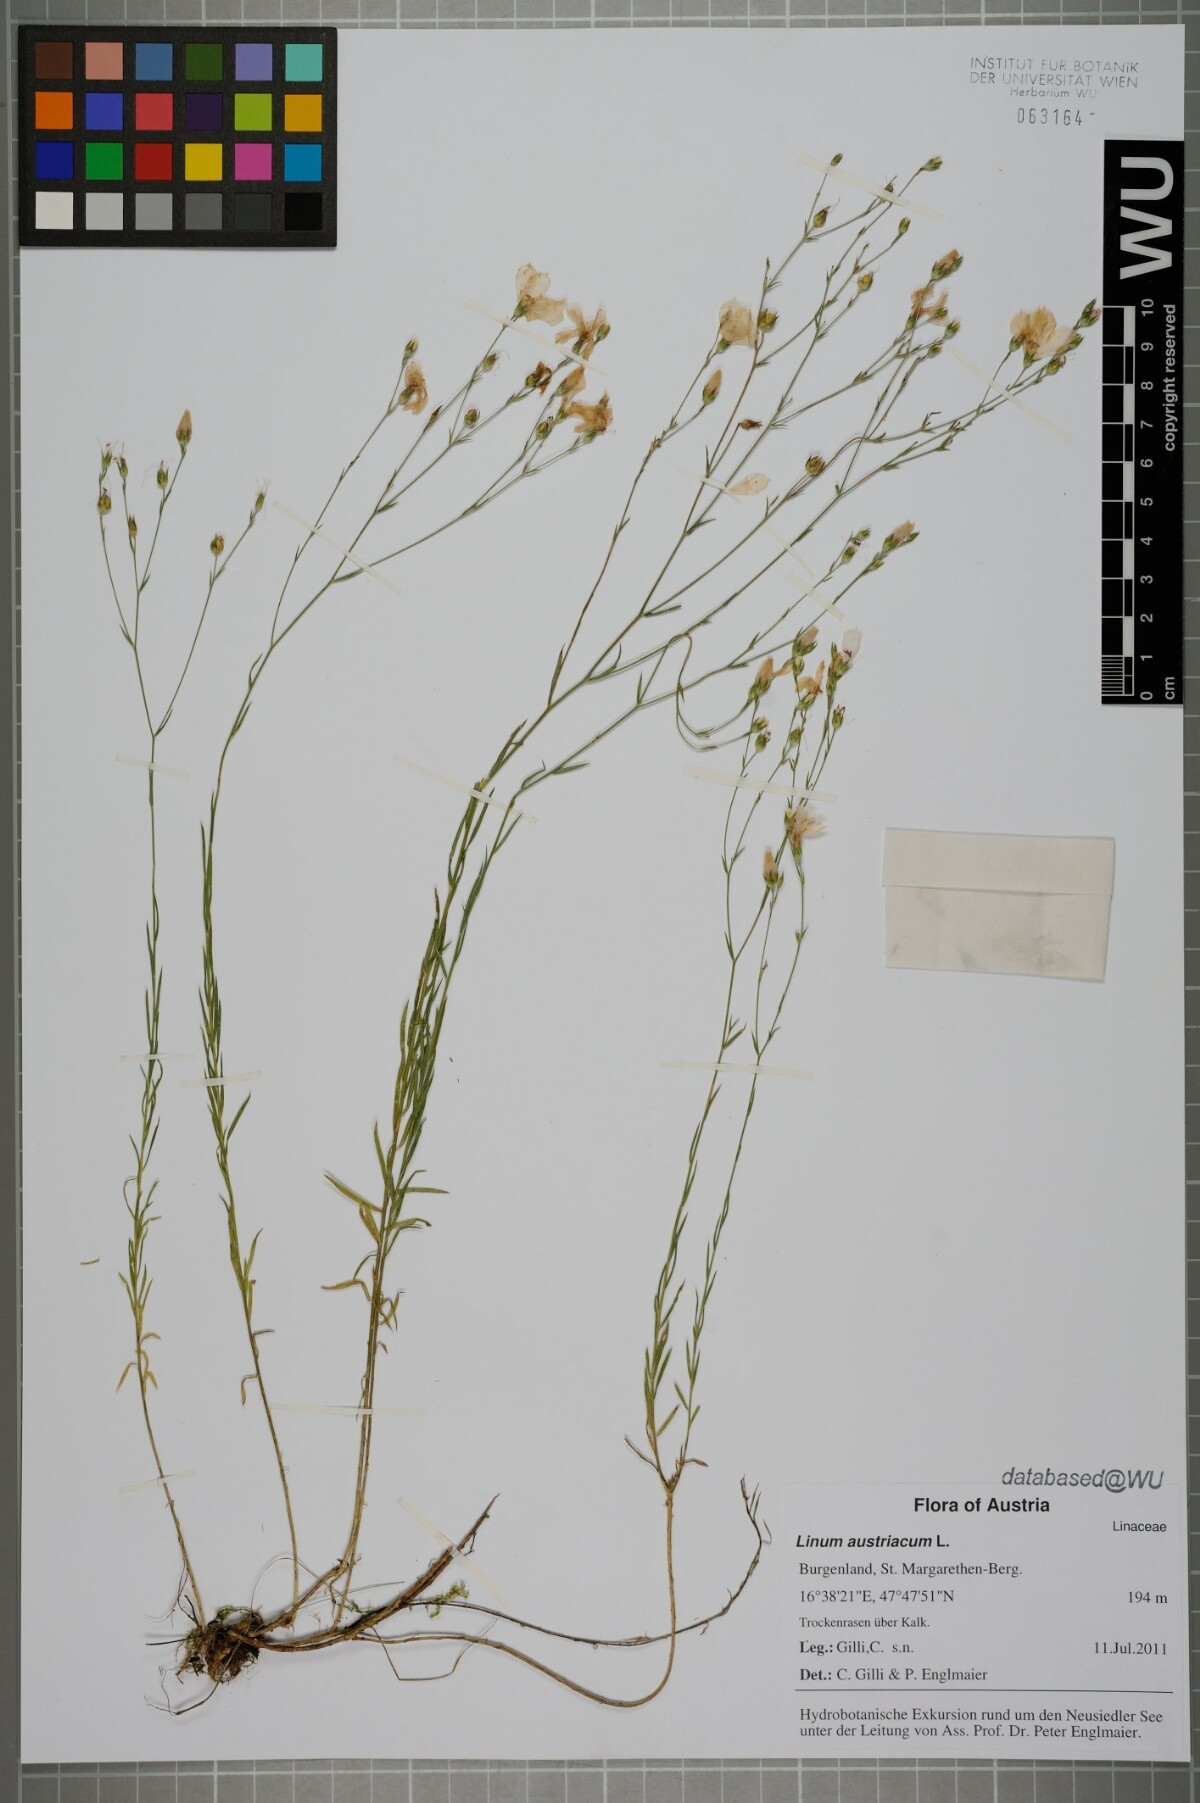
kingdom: Plantae
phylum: Tracheophyta
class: Magnoliopsida
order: Malpighiales
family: Linaceae
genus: Linum
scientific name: Linum austriacum
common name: Austrian flax
